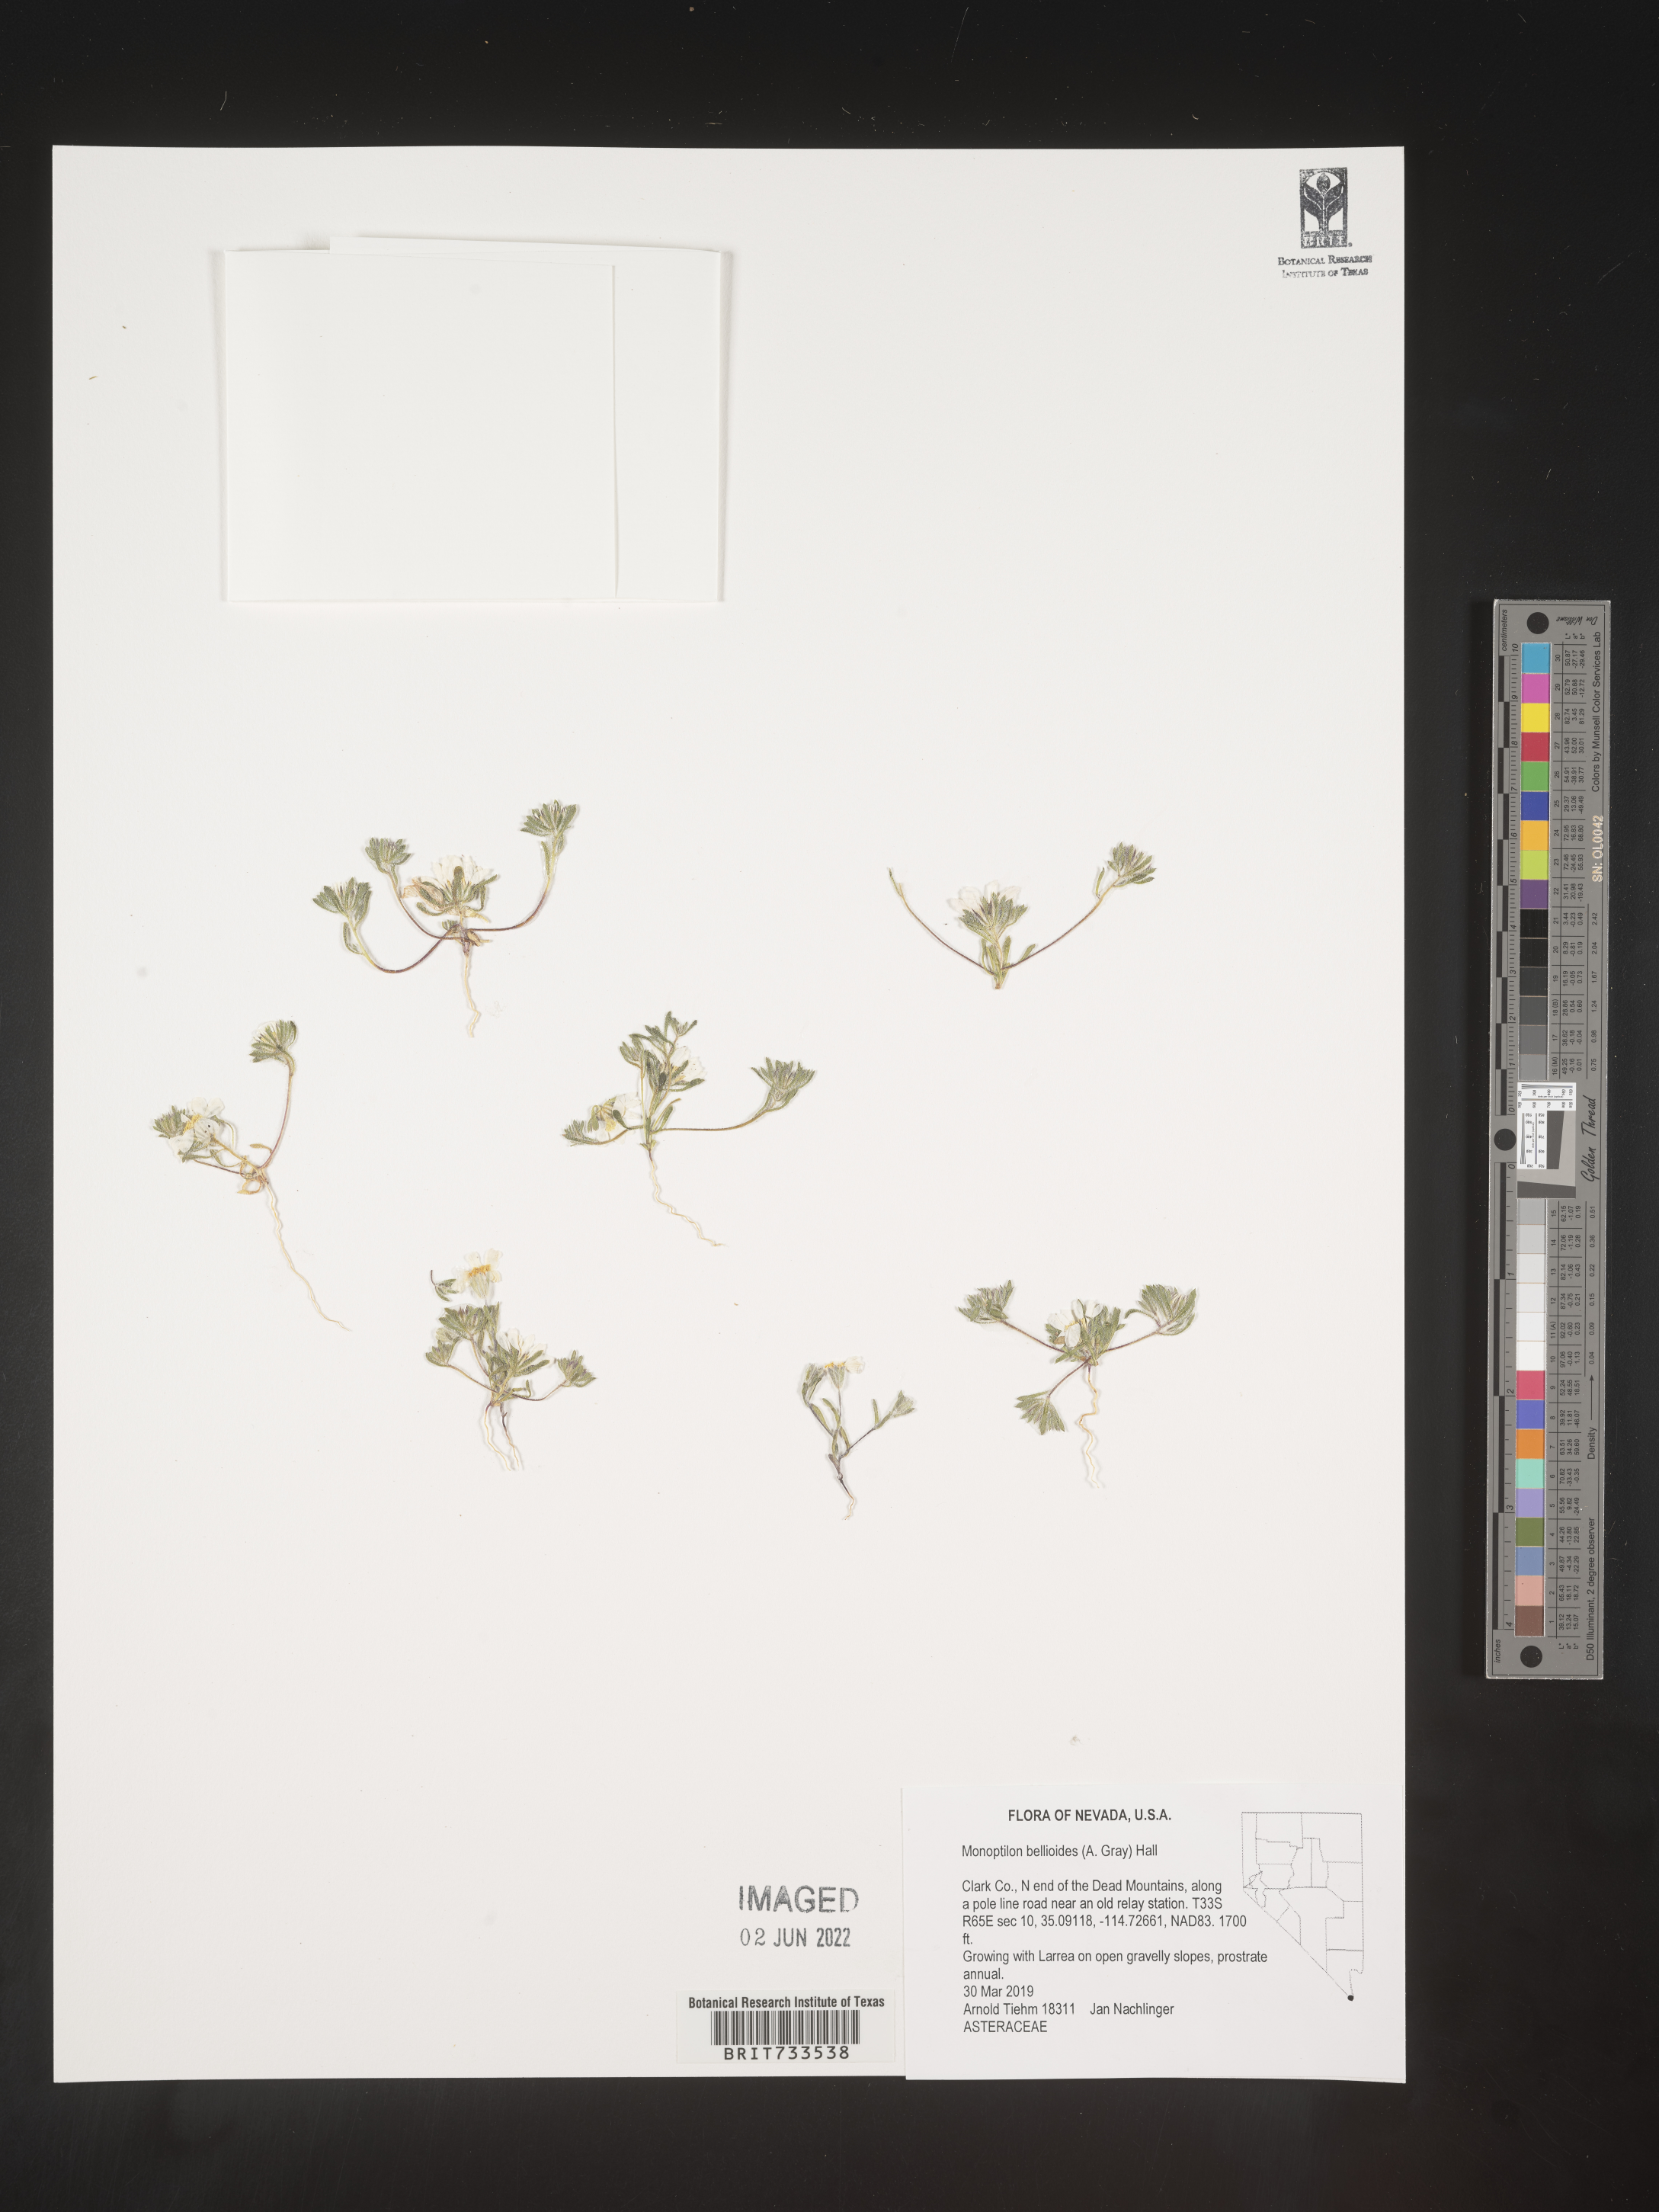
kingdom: Plantae
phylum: Tracheophyta
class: Magnoliopsida
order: Asterales
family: Asteraceae
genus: Monoptilon
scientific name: Monoptilon
